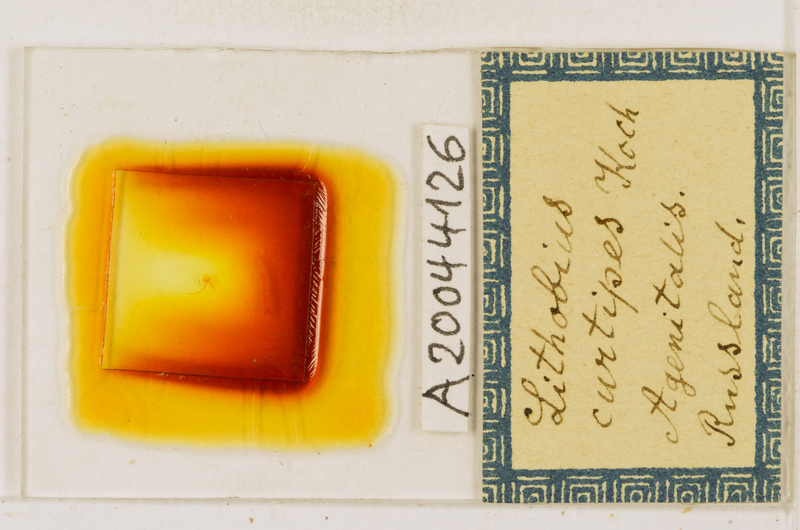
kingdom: Animalia
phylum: Arthropoda
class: Chilopoda
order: Lithobiomorpha
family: Lithobiidae
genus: Lithobius
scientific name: Lithobius curtipes
